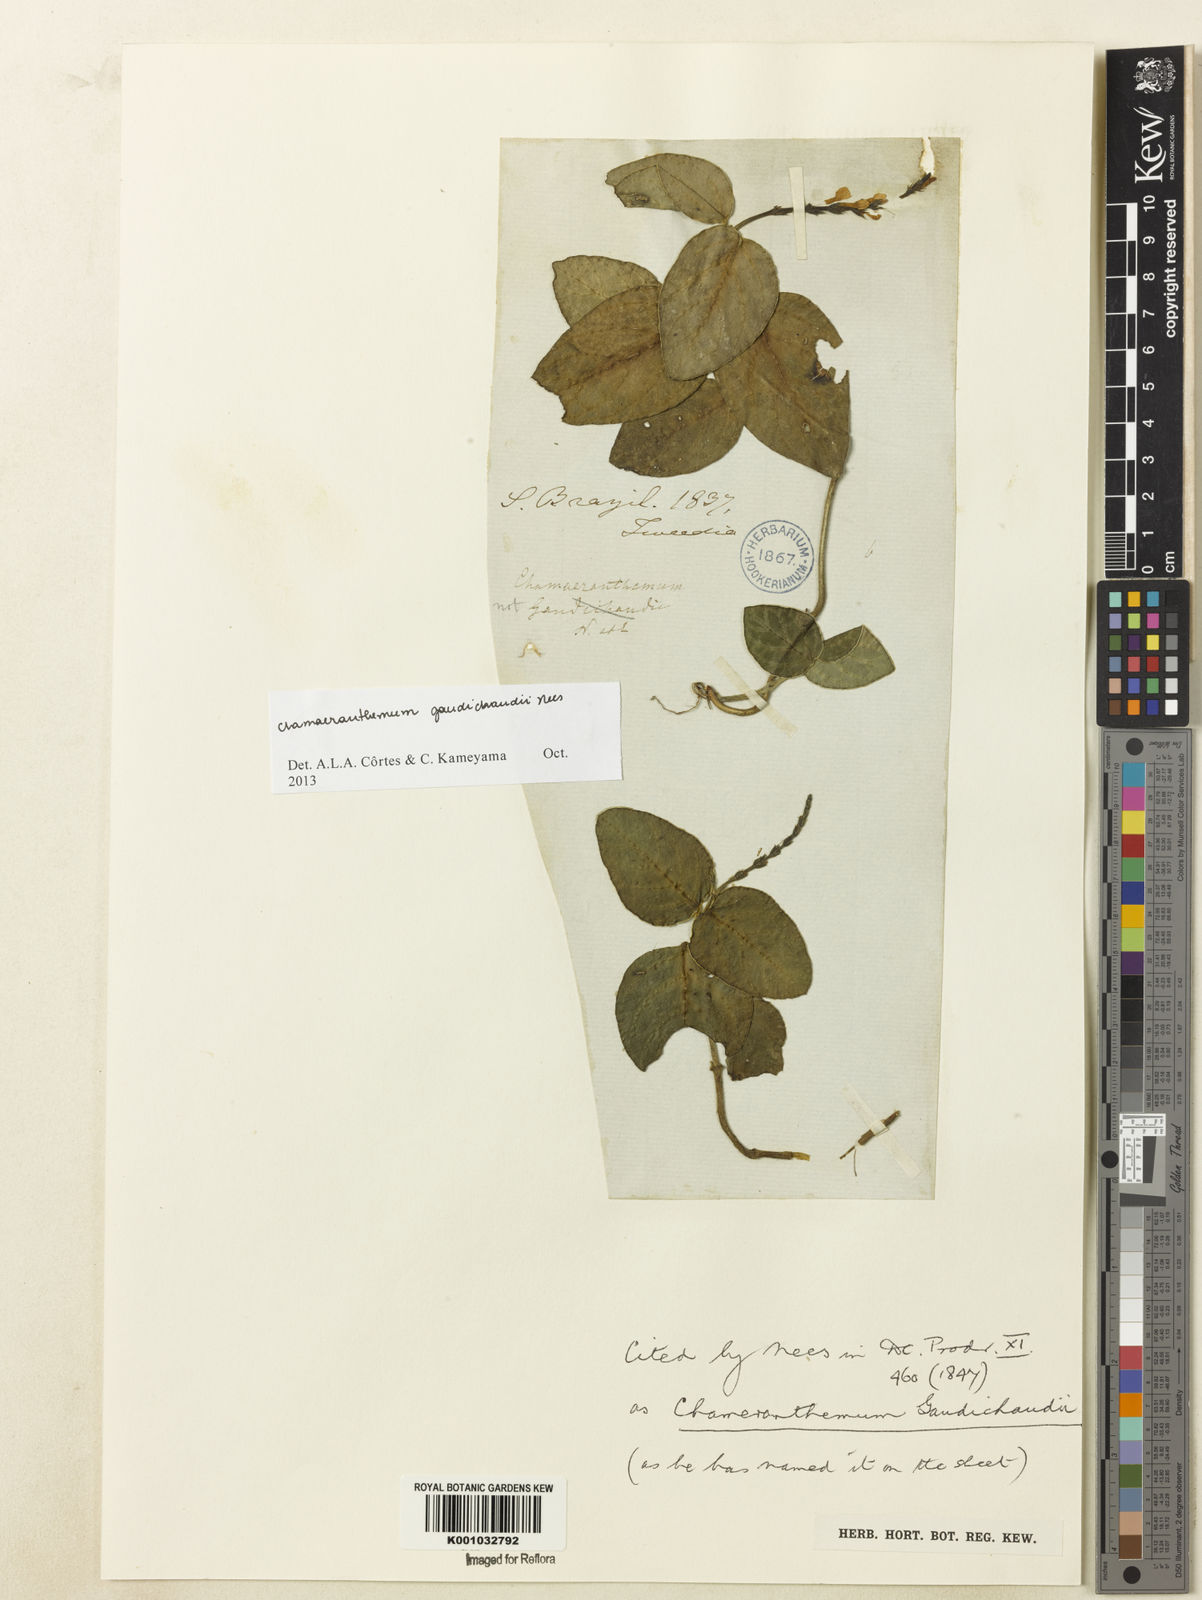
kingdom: Plantae
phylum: Tracheophyta
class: Magnoliopsida
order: Lamiales
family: Acanthaceae
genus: Chamaeranthemum
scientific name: Chamaeranthemum beyrichii
